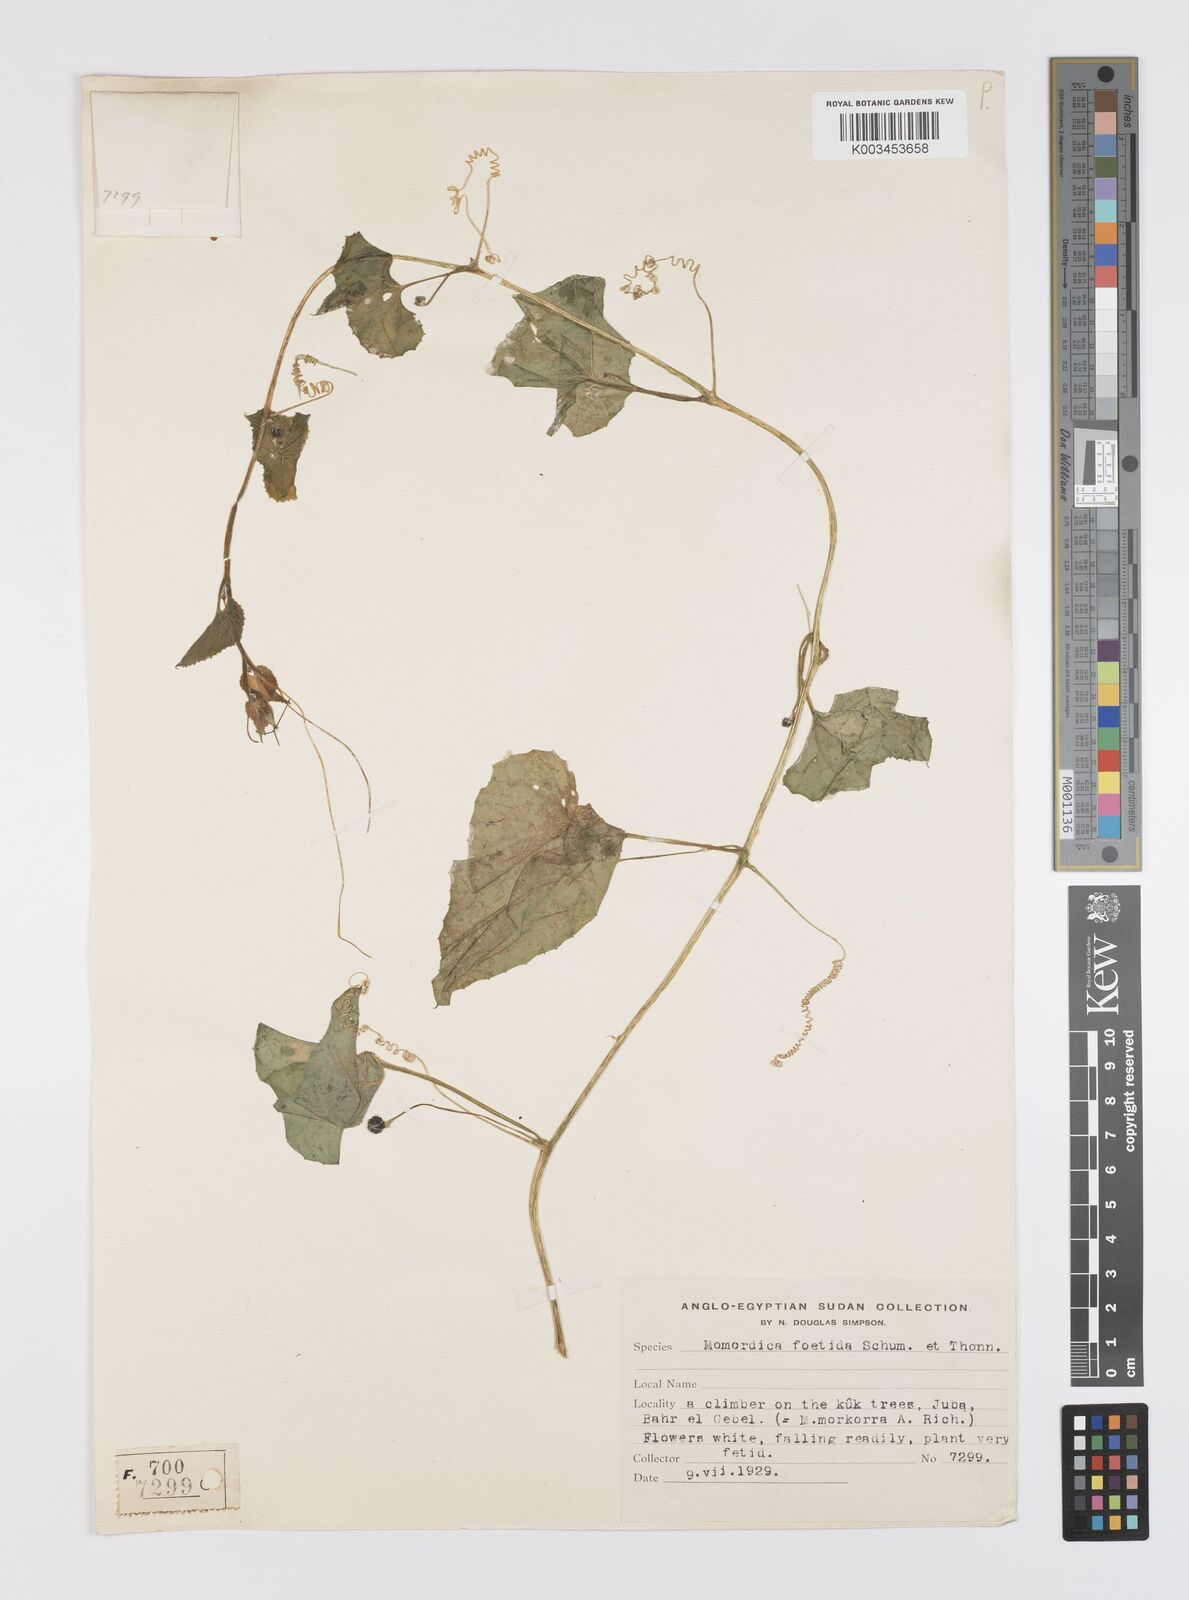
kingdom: Plantae
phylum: Tracheophyta
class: Magnoliopsida
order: Cucurbitales
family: Cucurbitaceae
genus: Momordica
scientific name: Momordica foetida
